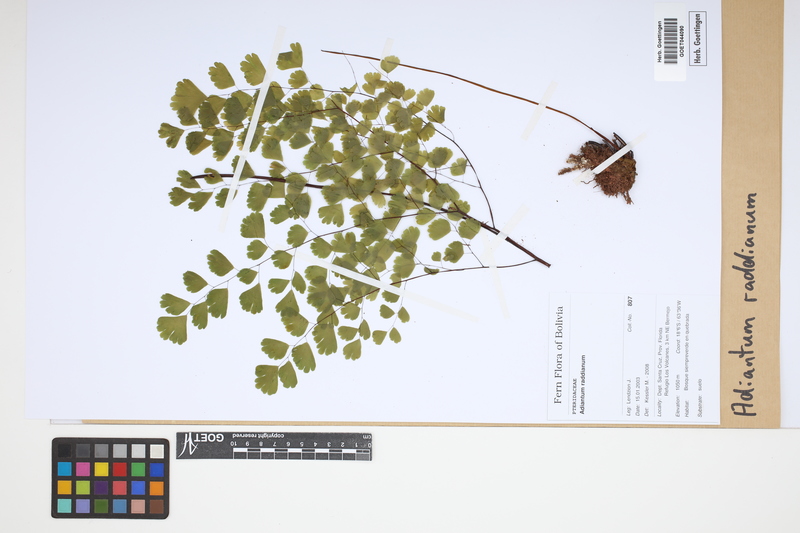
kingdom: Plantae
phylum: Tracheophyta
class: Polypodiopsida
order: Polypodiales
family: Pteridaceae
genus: Adiantum
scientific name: Adiantum raddianum
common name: Delta maidenhair fern
